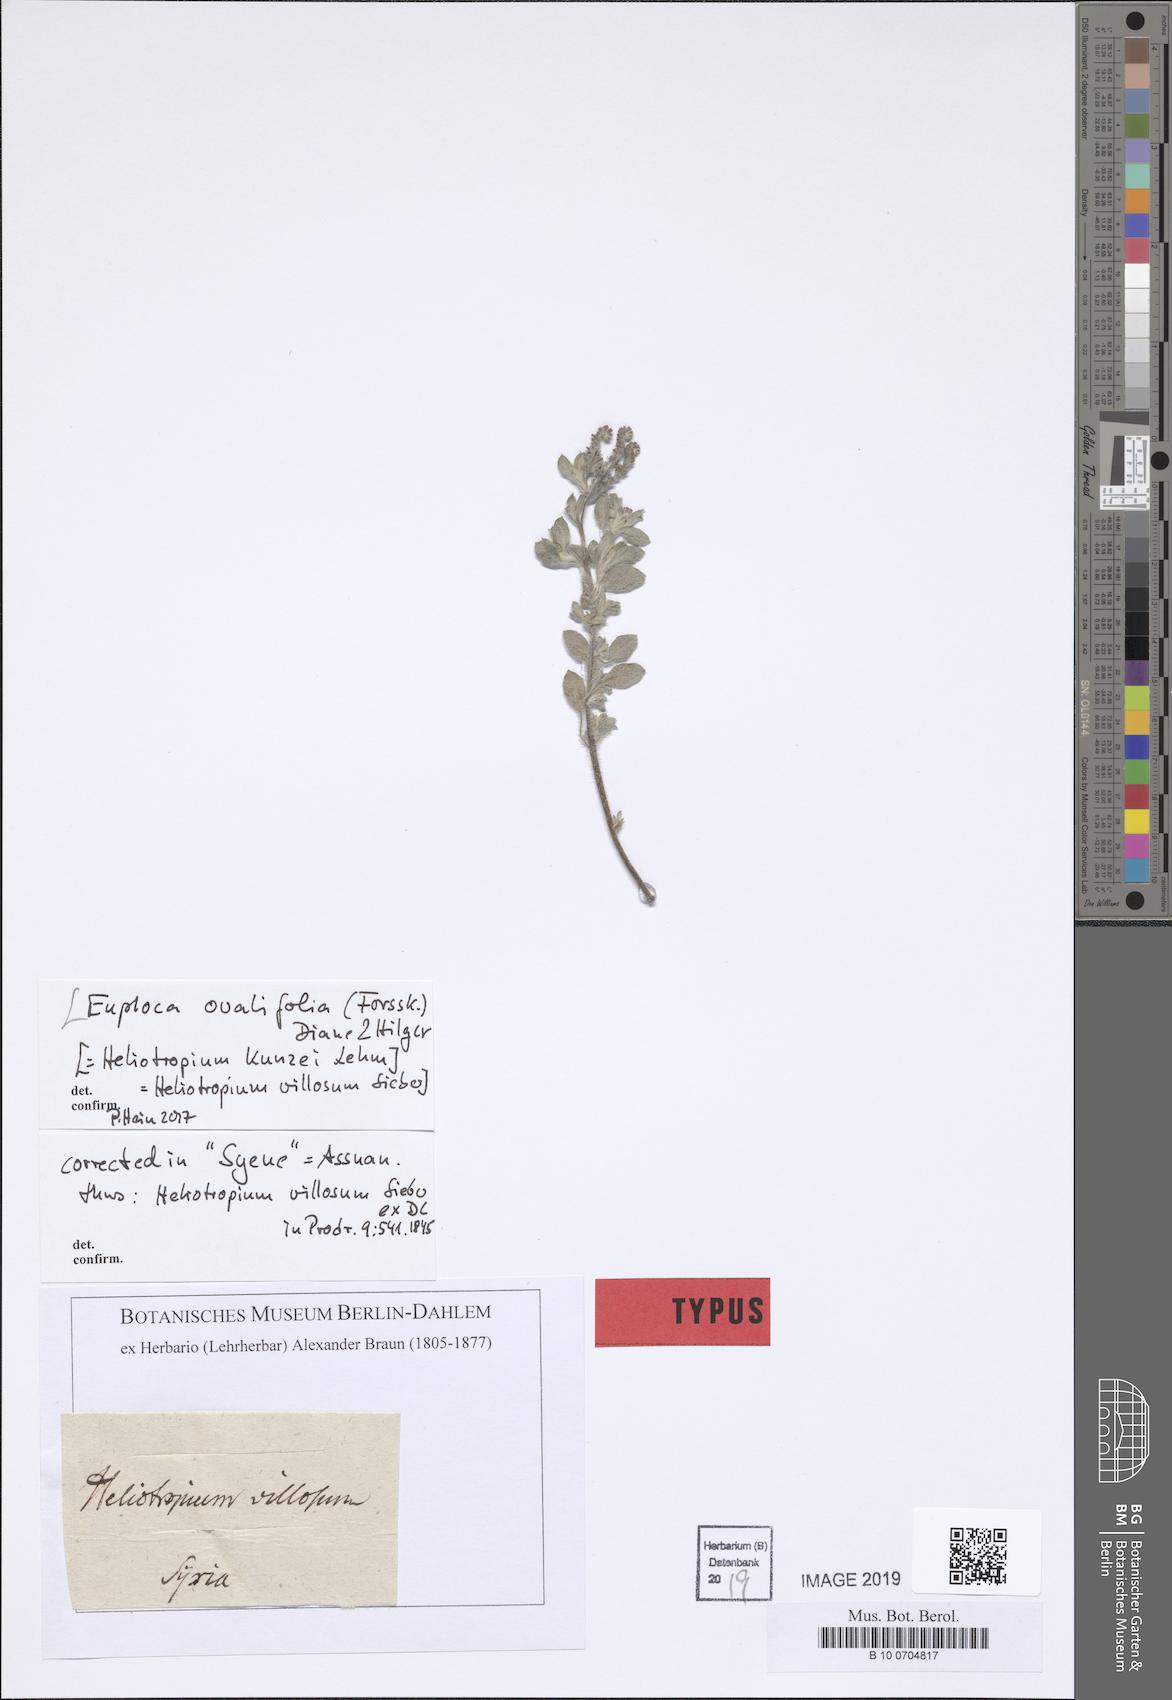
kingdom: Plantae
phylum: Tracheophyta
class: Magnoliopsida
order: Caryophyllales
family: Polygonaceae
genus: Polygonum
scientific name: Polygonum plebeium
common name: Common knotweed
